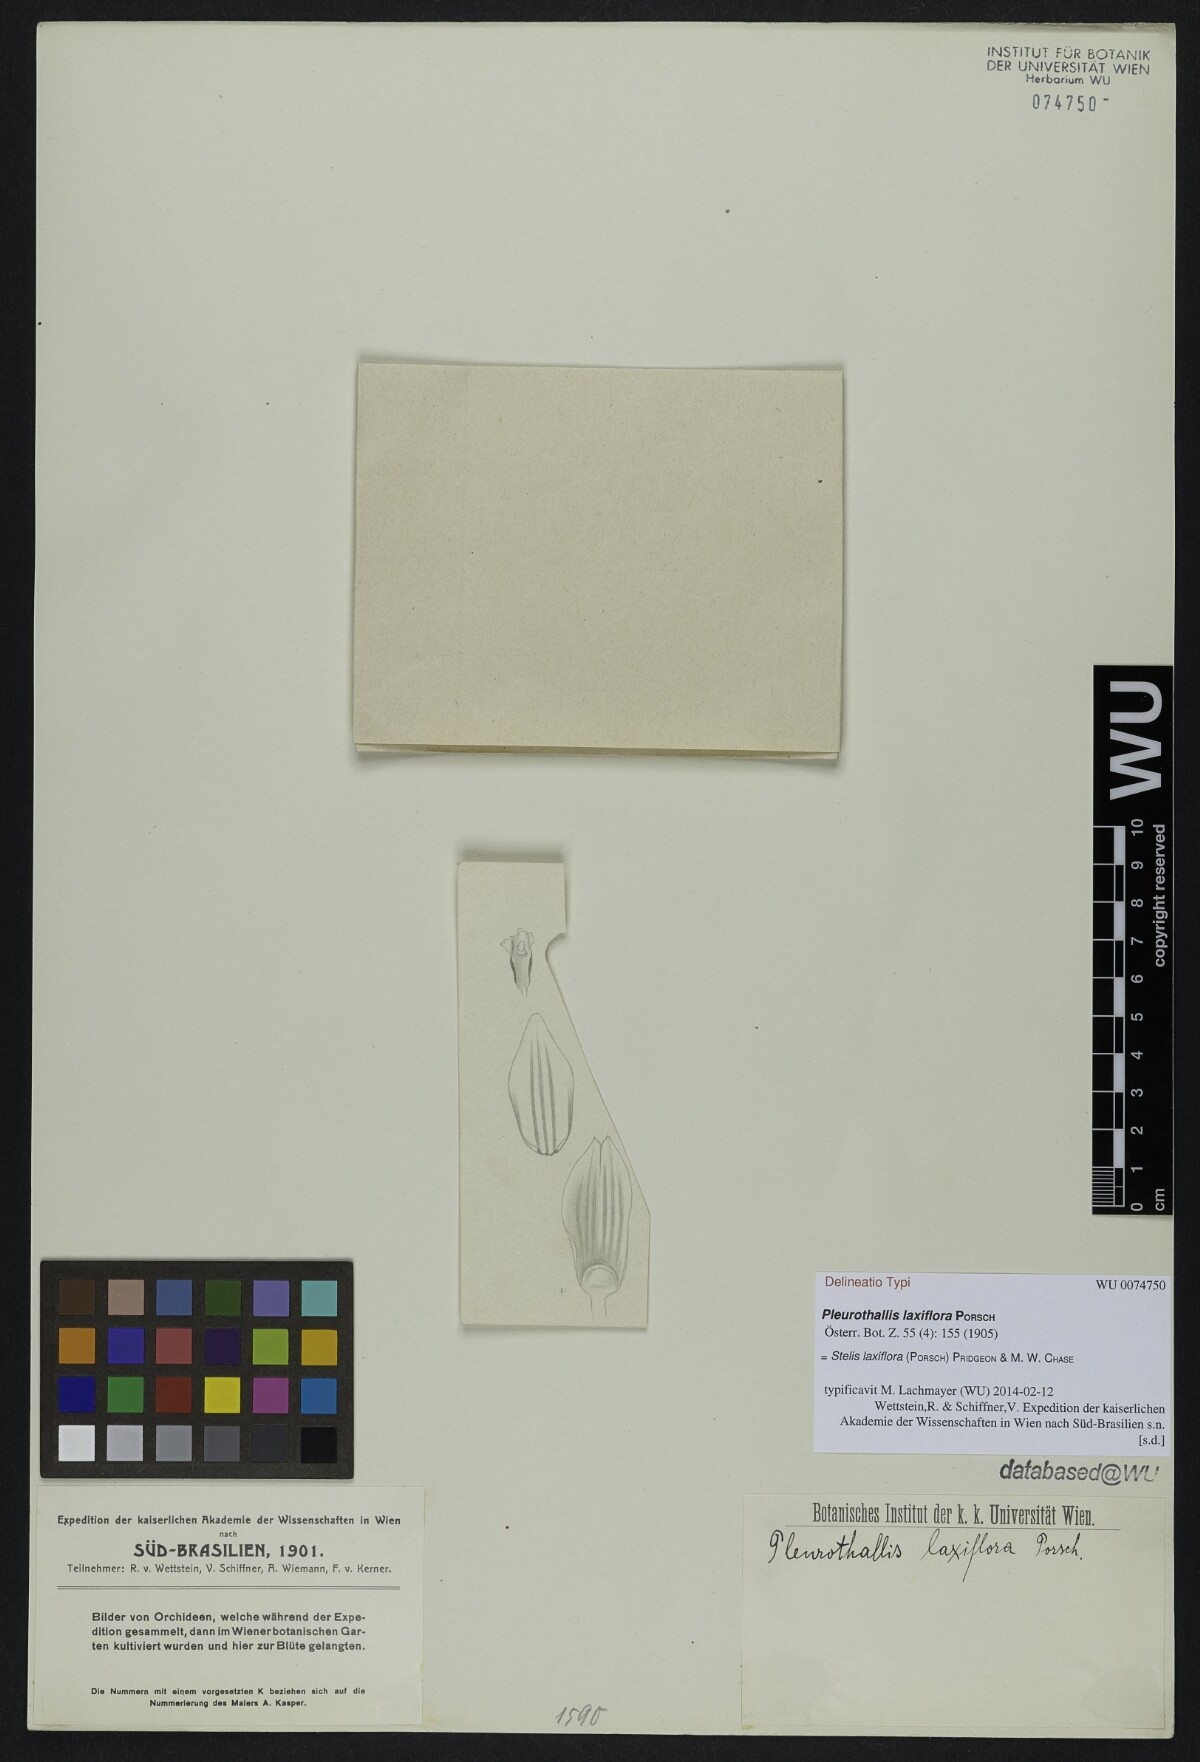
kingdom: Plantae
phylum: Tracheophyta
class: Liliopsida
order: Asparagales
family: Orchidaceae
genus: Pabstiella
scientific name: Pabstiella laxiflora
